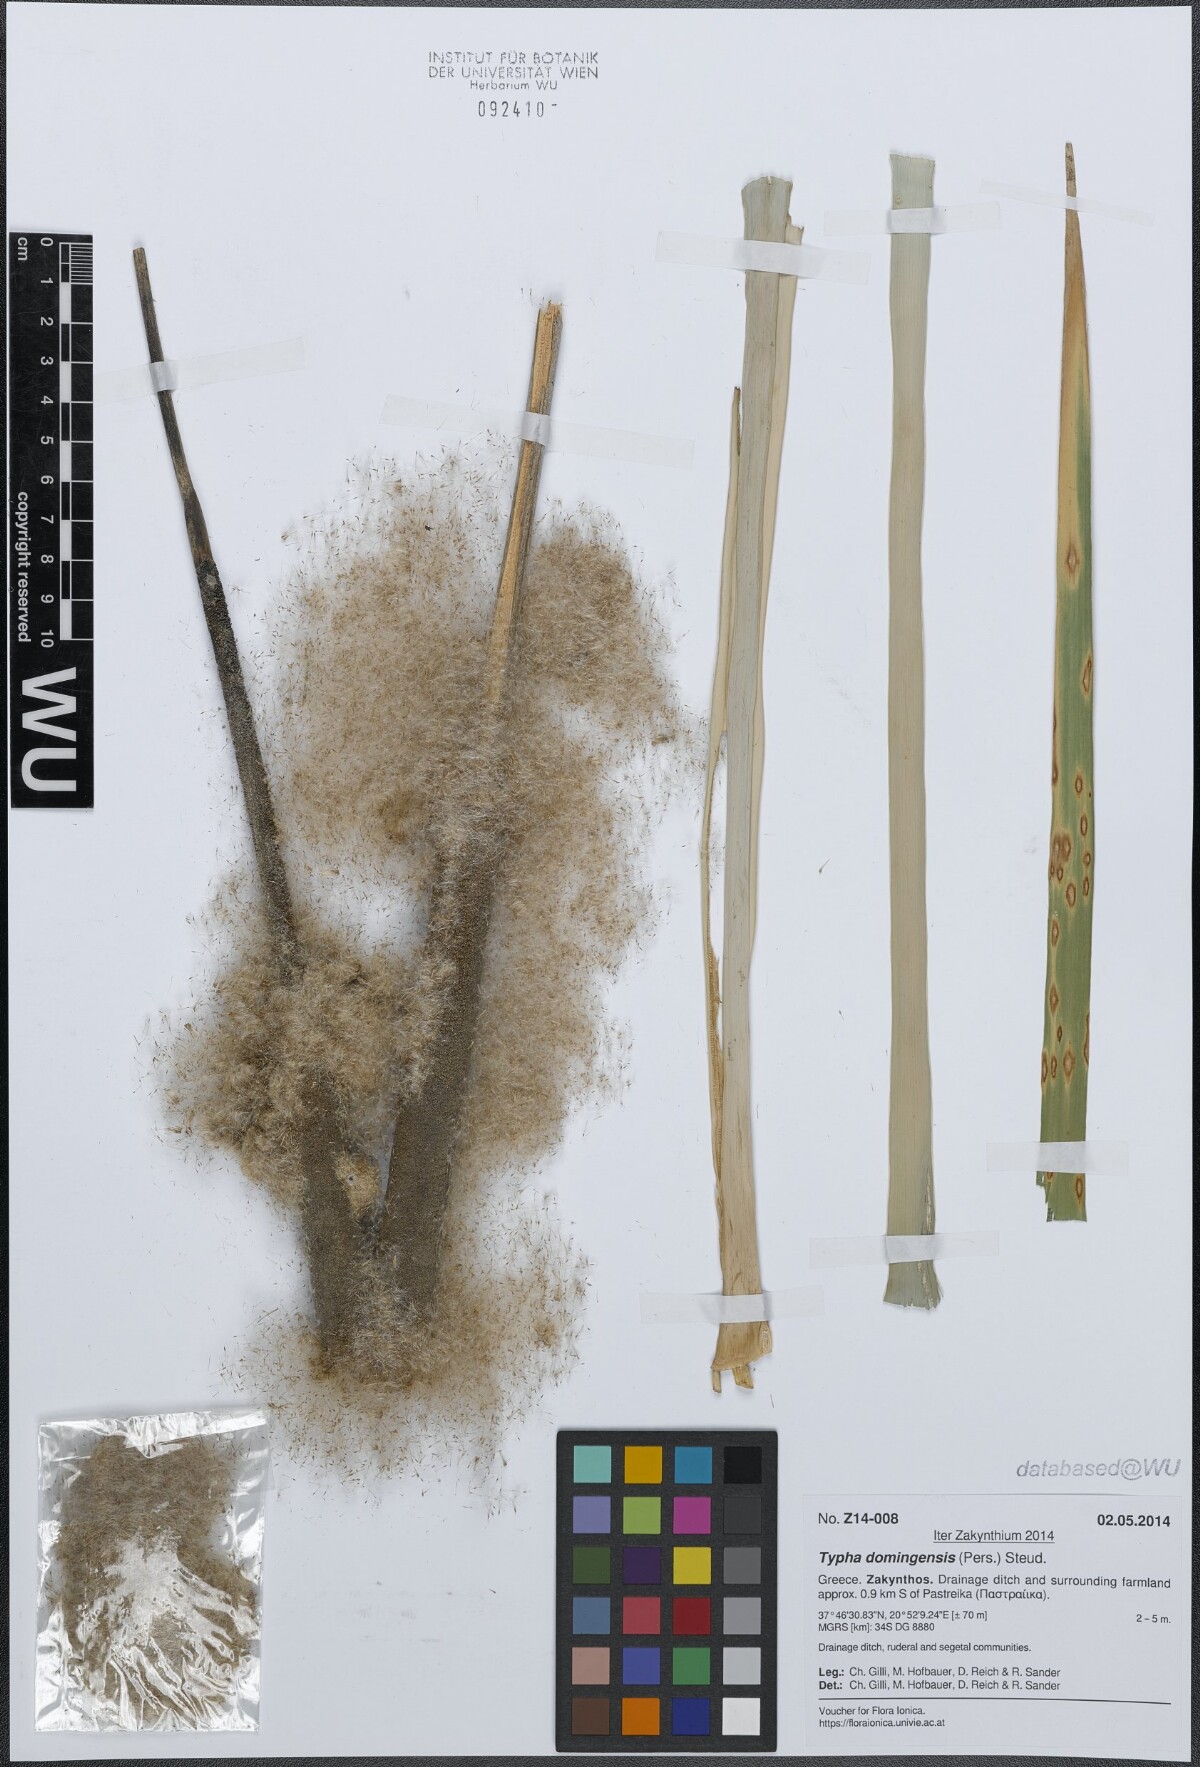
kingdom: Plantae
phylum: Tracheophyta
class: Liliopsida
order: Poales
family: Typhaceae
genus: Typha
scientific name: Typha domingensis
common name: Southern cattail
